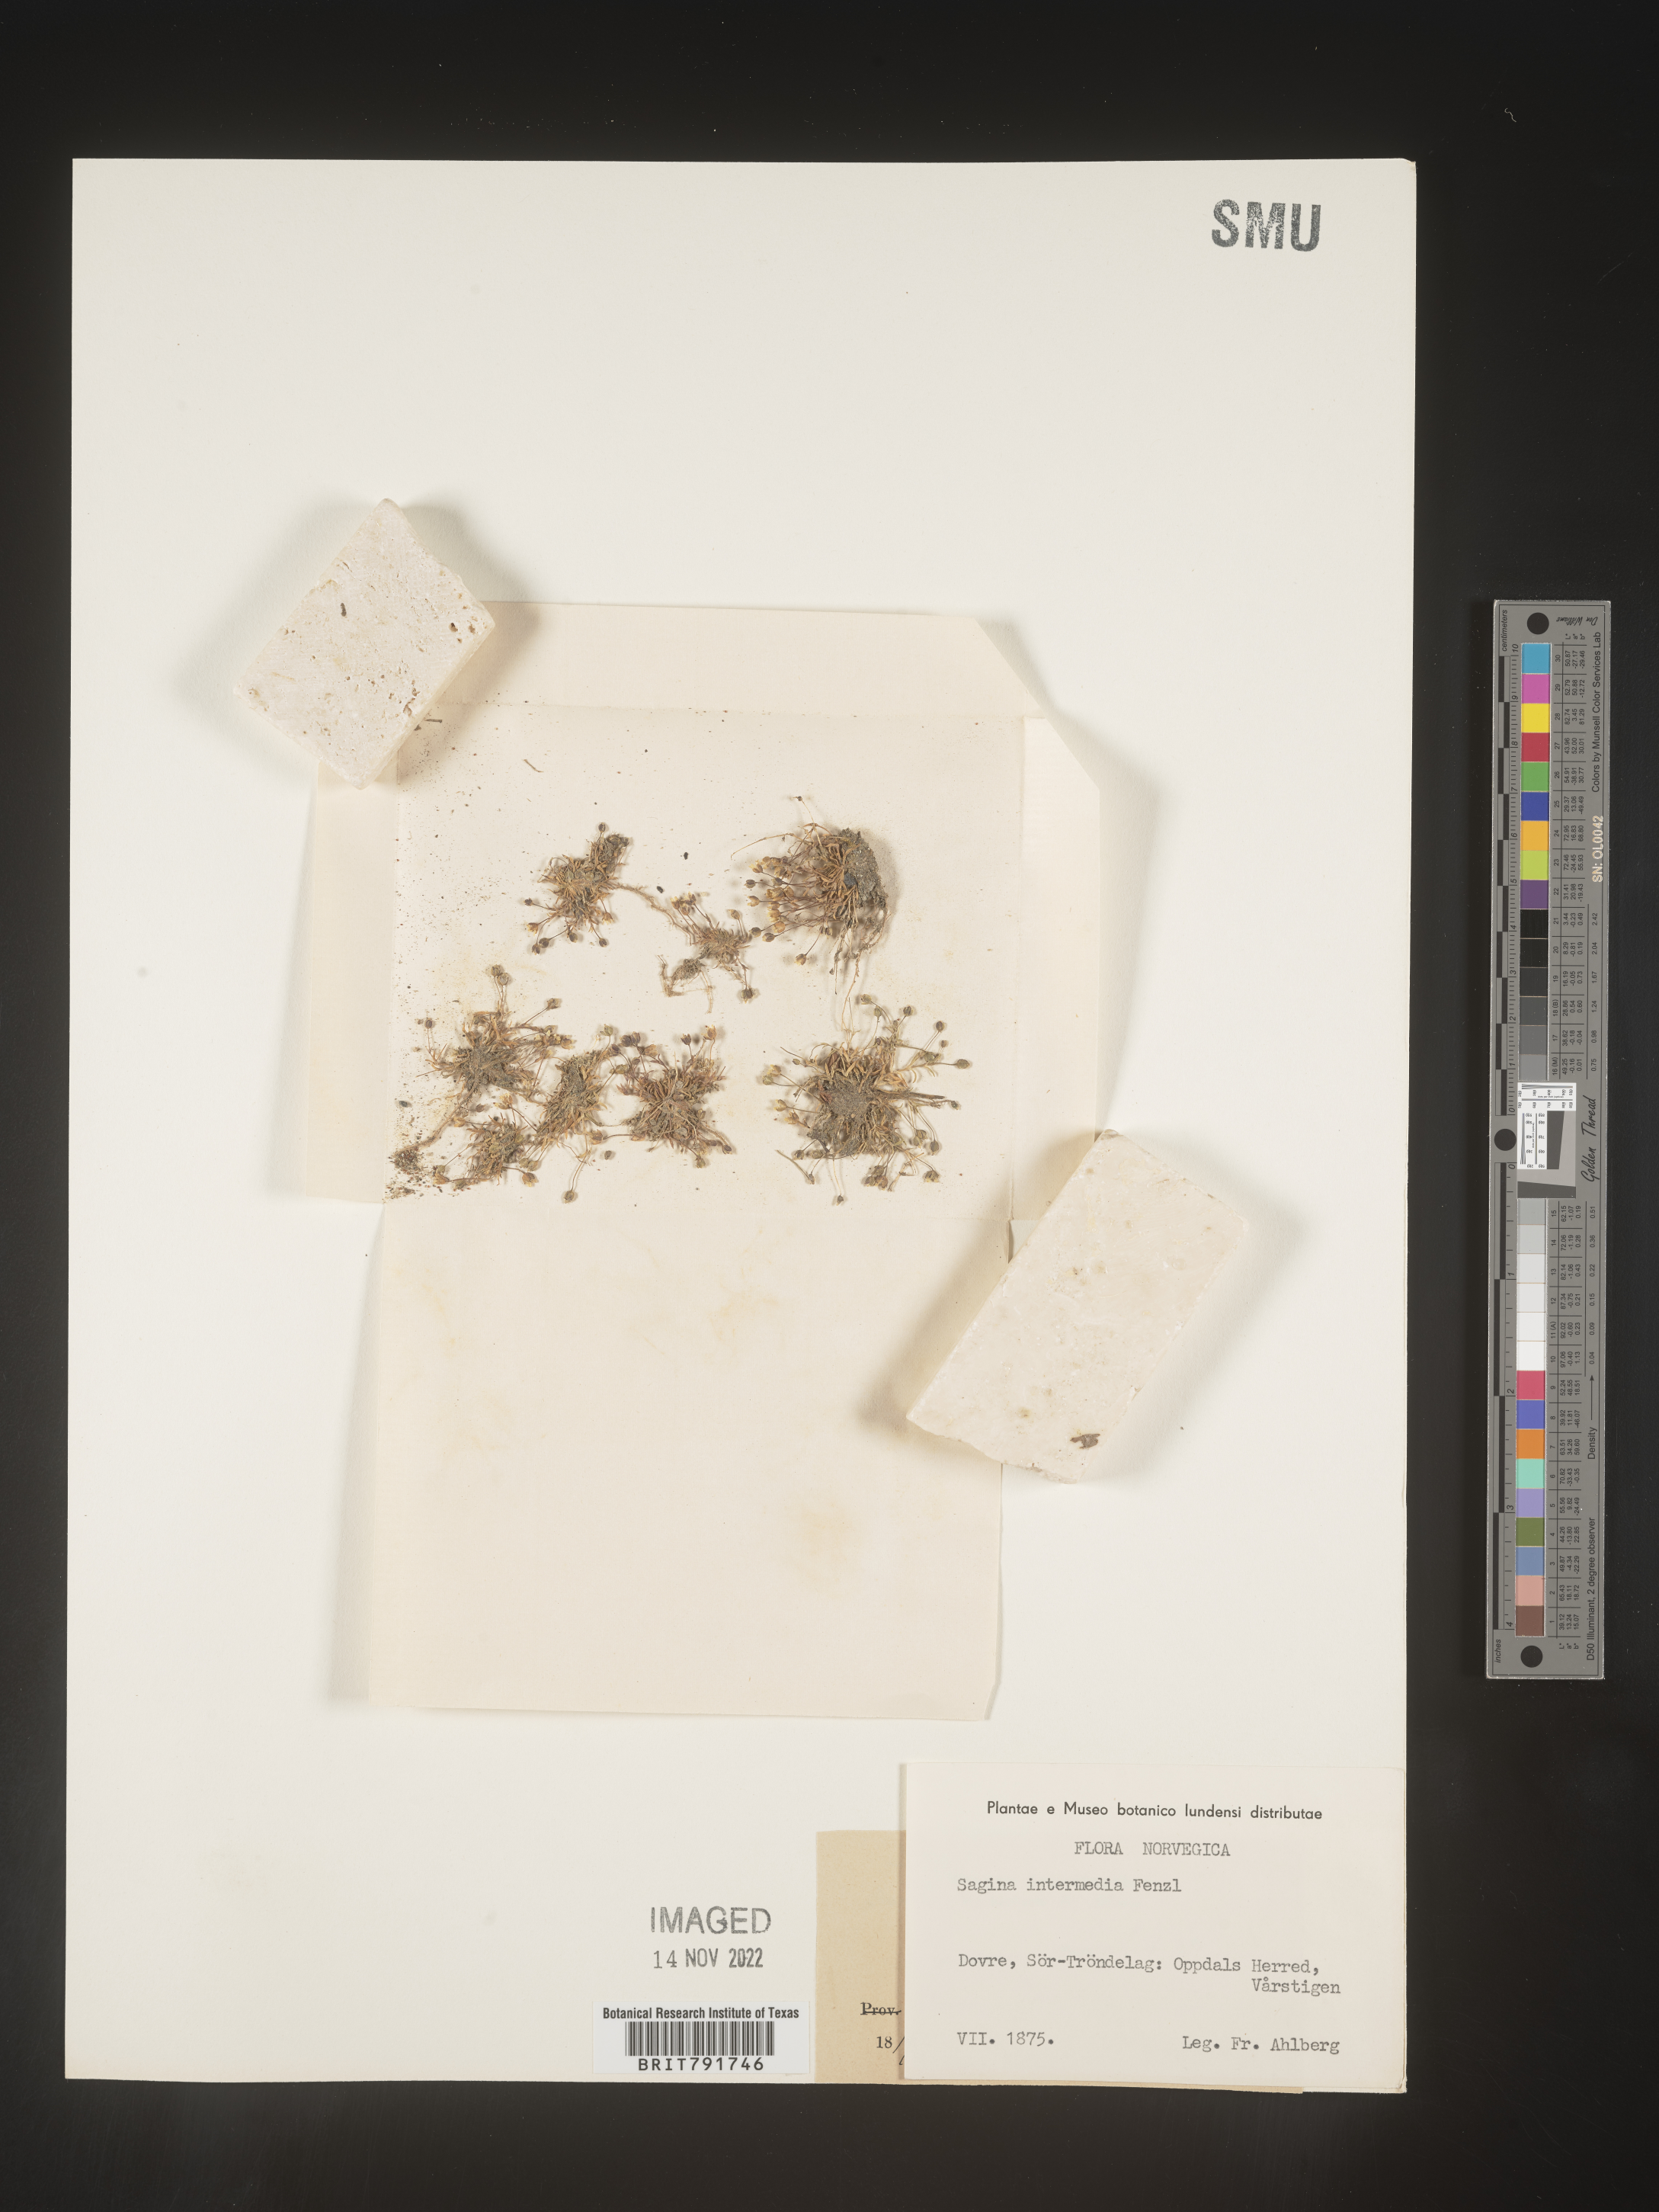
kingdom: Plantae
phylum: Tracheophyta
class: Magnoliopsida
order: Caryophyllales
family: Caryophyllaceae
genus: Sagina
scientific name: Sagina
